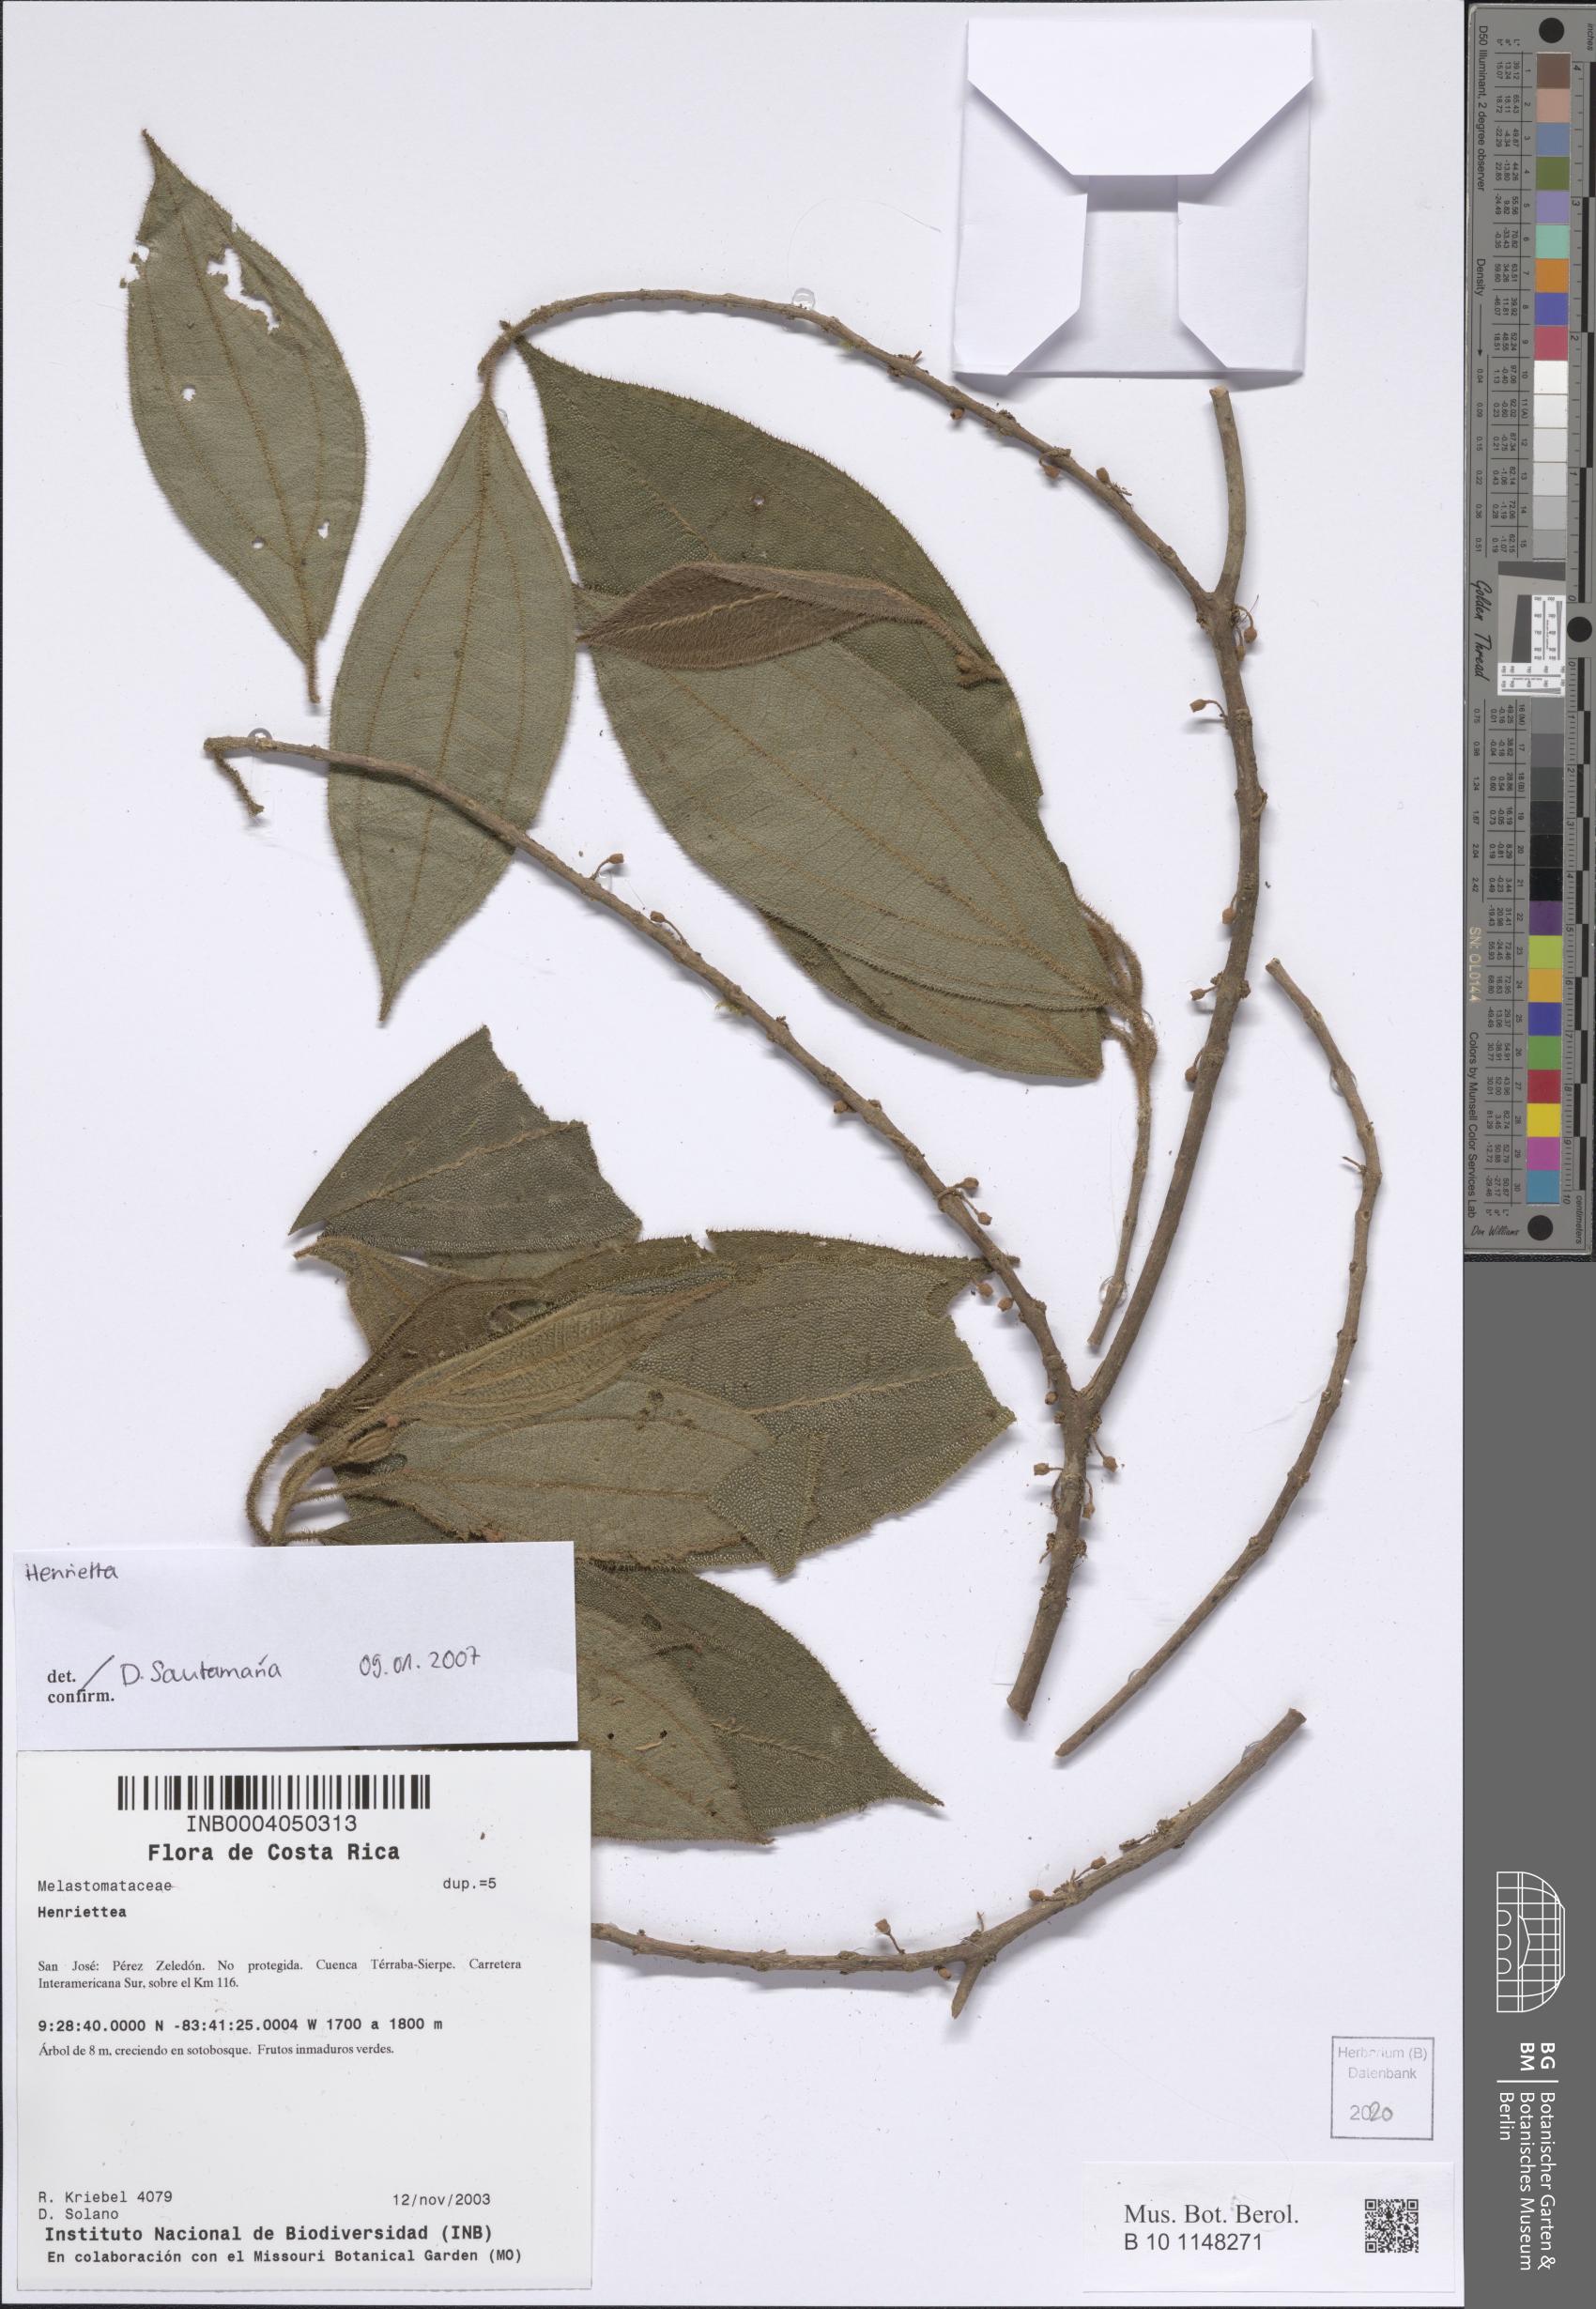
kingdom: Plantae
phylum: Tracheophyta
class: Magnoliopsida
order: Myrtales
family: Melastomataceae
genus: Henriettea
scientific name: Henriettea
